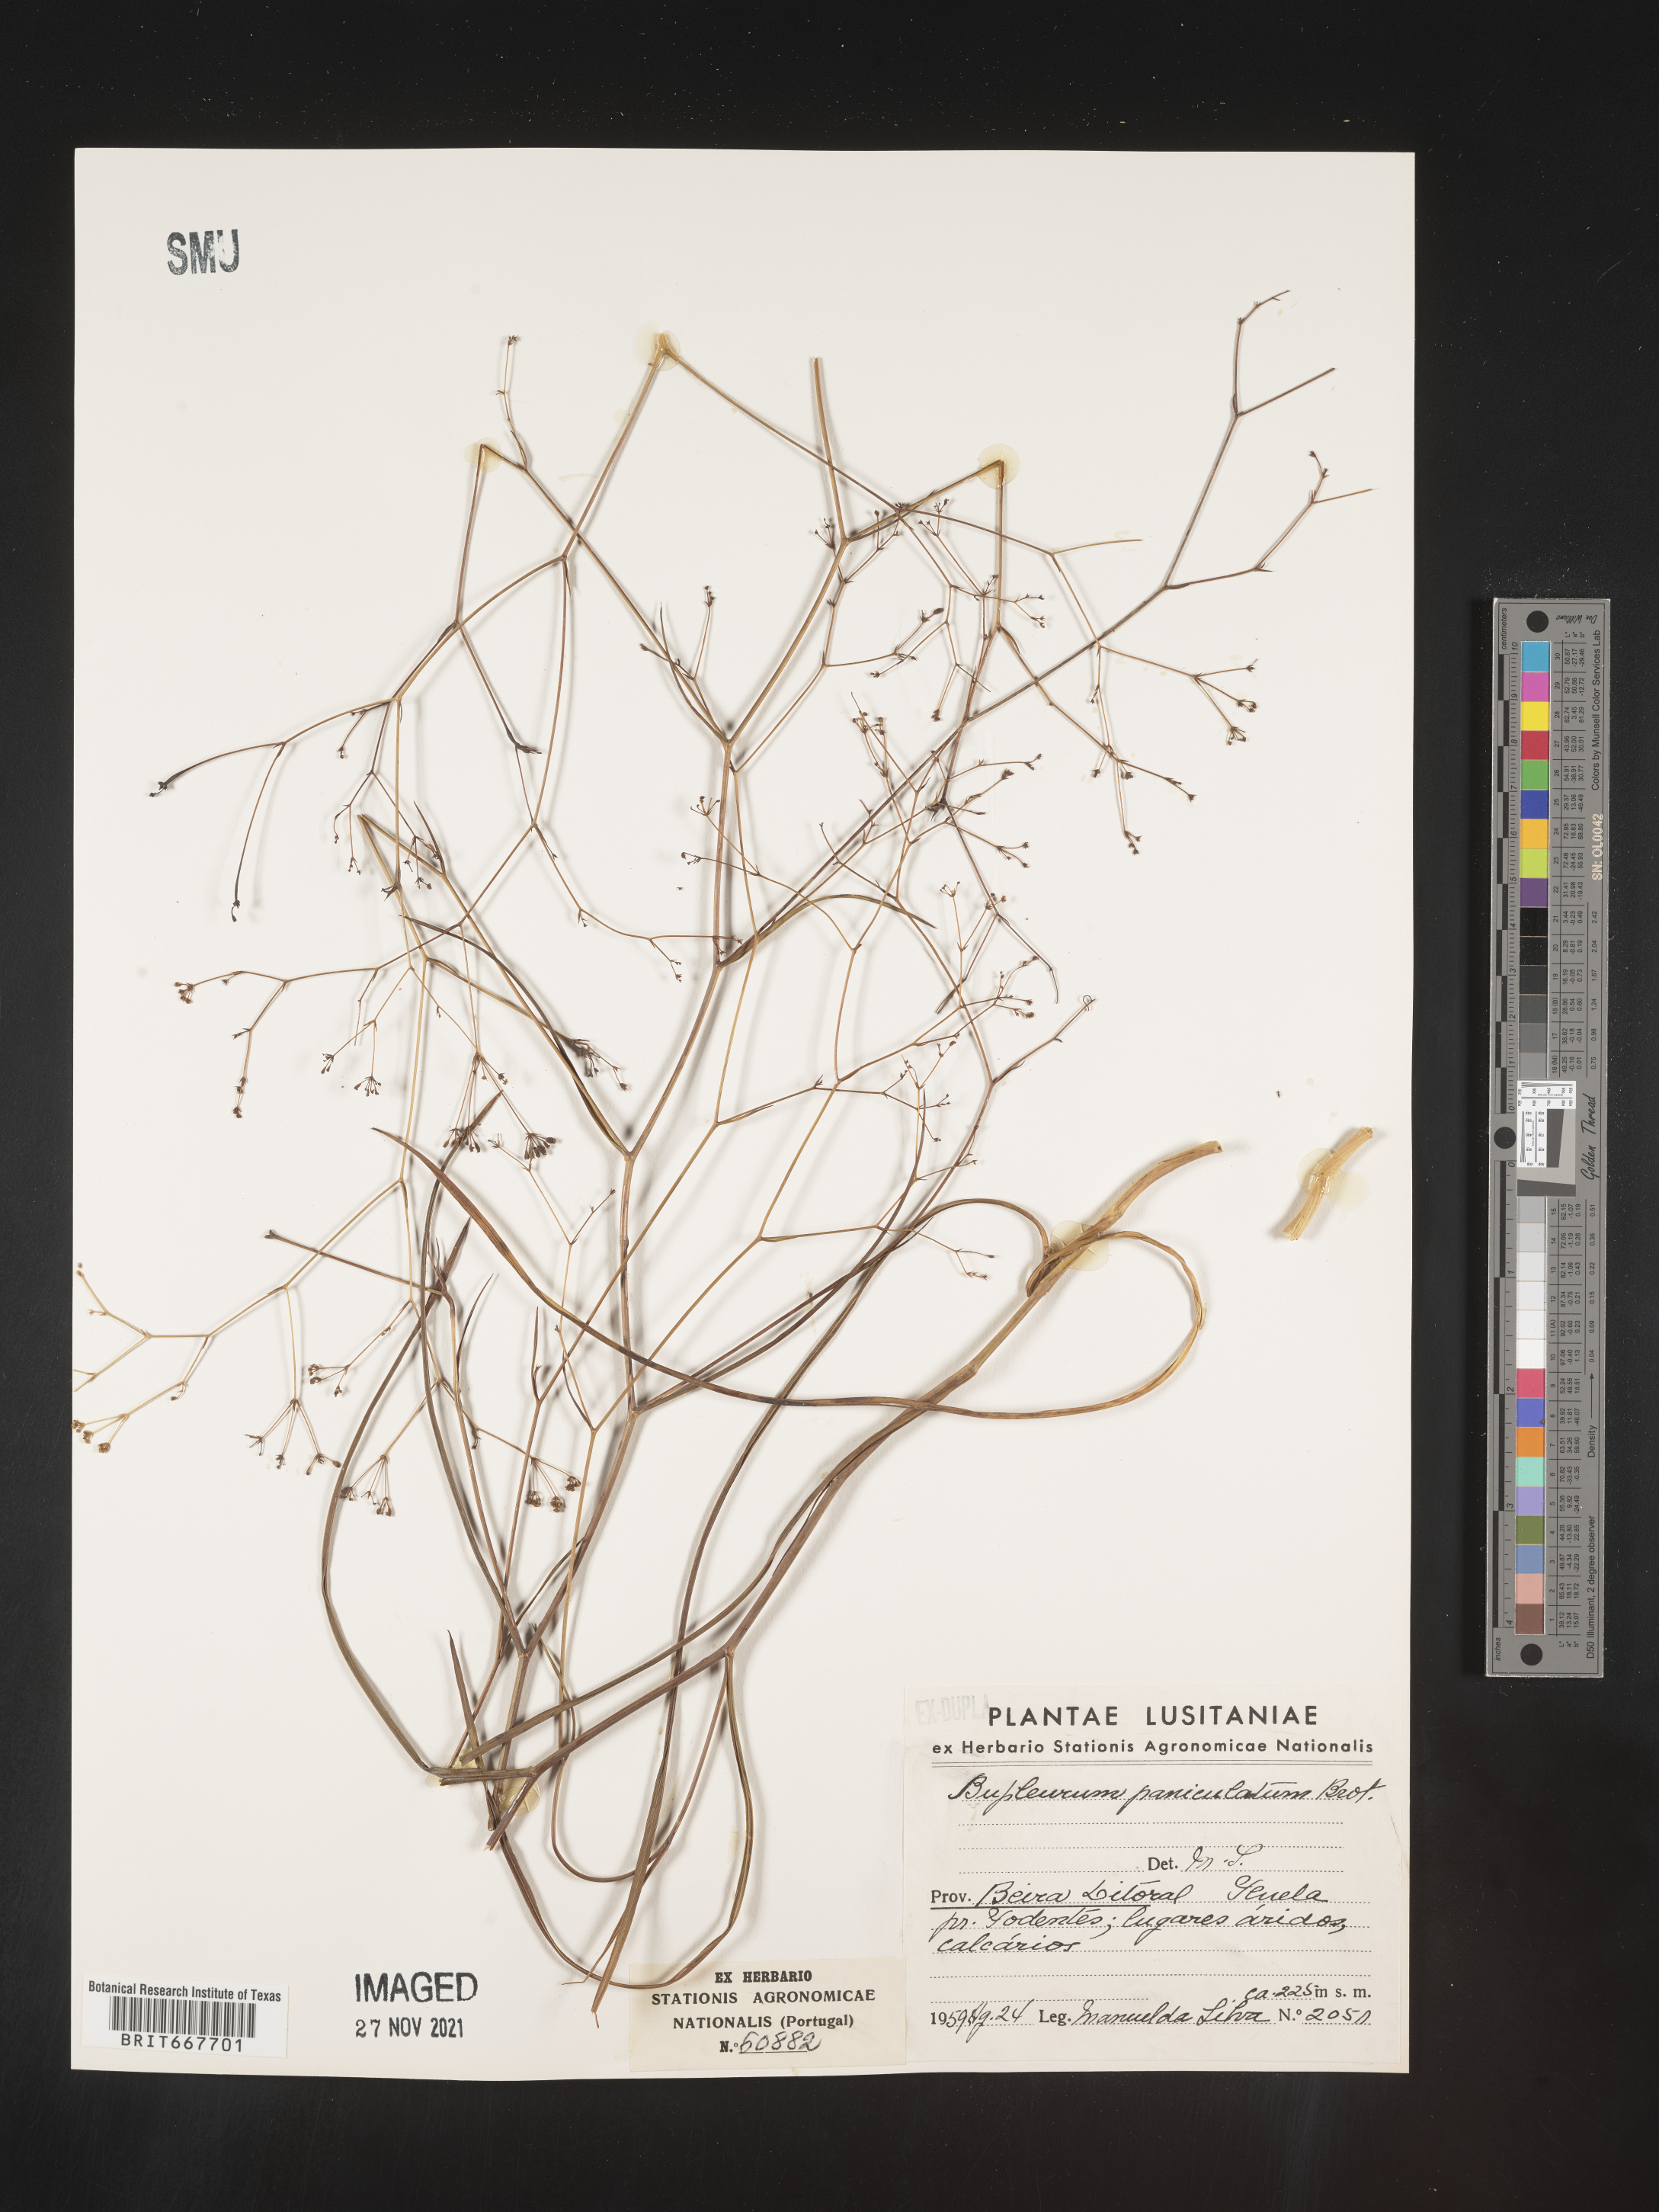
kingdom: Plantae
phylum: Tracheophyta
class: Magnoliopsida
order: Apiales
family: Apiaceae
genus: Bupleurum
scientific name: Bupleurum
